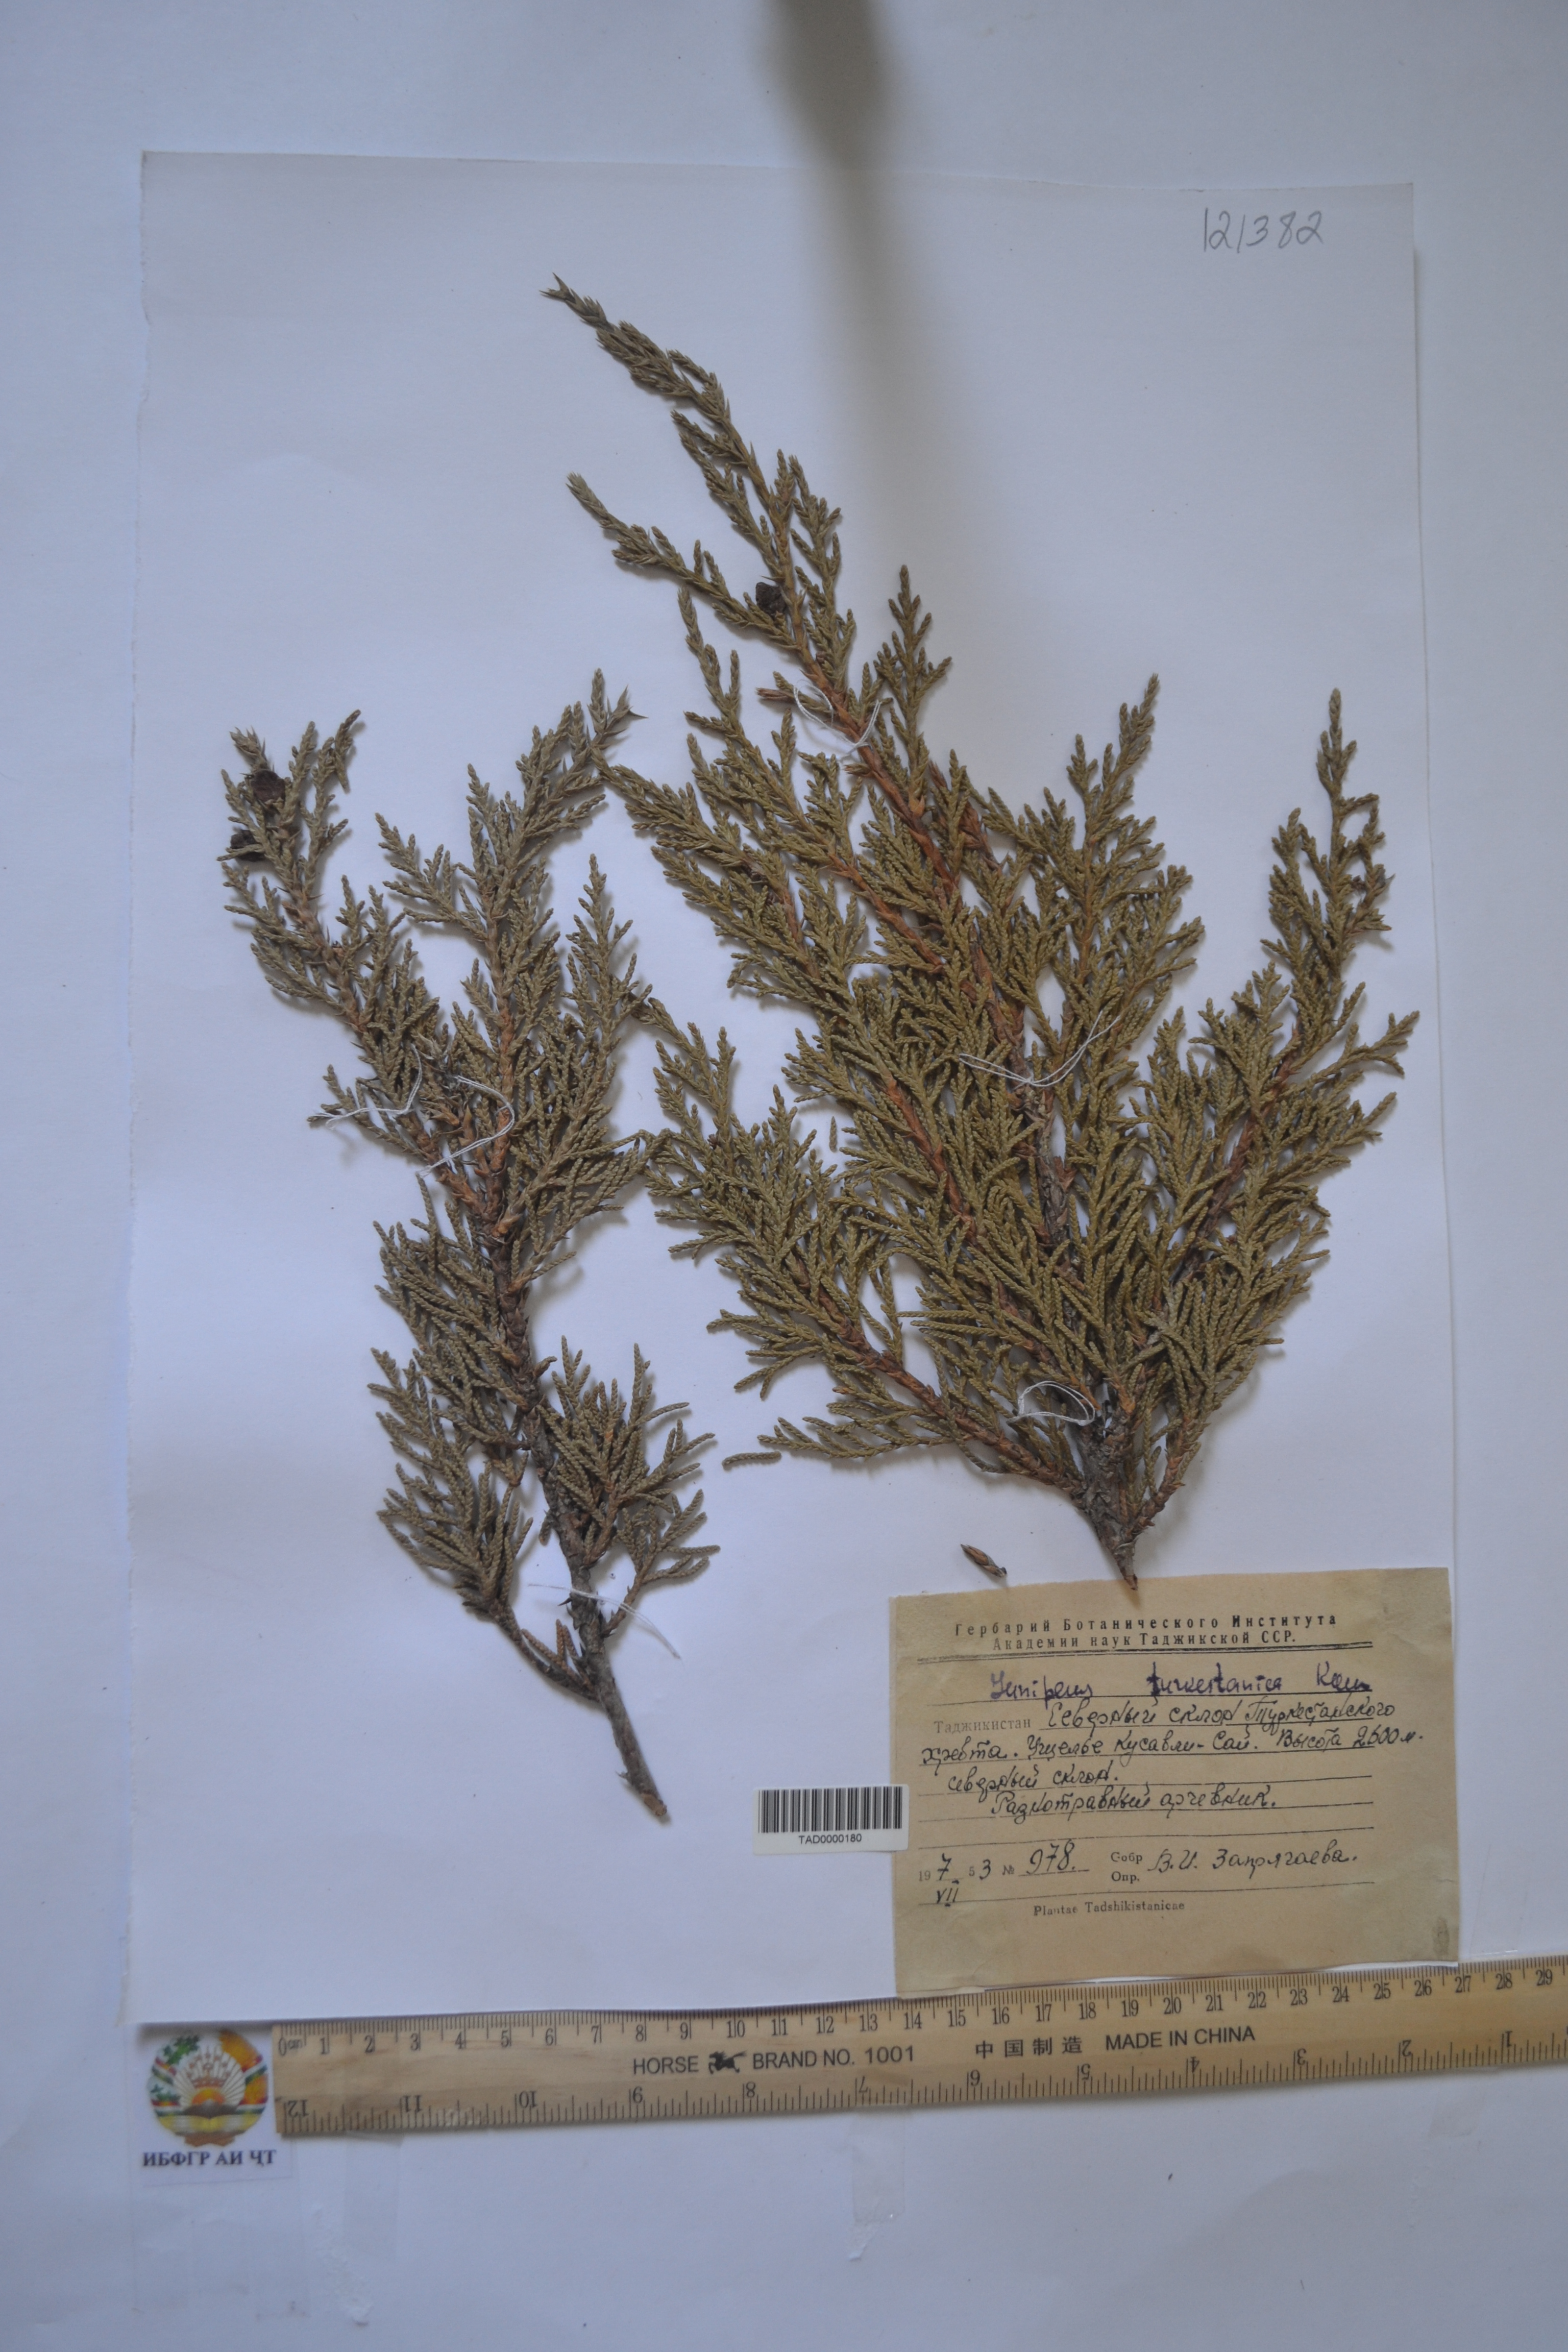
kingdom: Plantae
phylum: Tracheophyta
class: Pinopsida
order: Pinales
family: Cupressaceae
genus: Juniperus
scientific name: Juniperus pseudosabina
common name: Turkestan juniper
